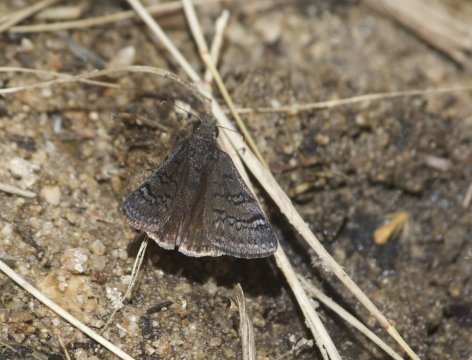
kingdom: Animalia
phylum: Arthropoda
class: Insecta
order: Lepidoptera
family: Hesperiidae
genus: Erynnis
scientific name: Erynnis brizo
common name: Sleepy Duskywing
